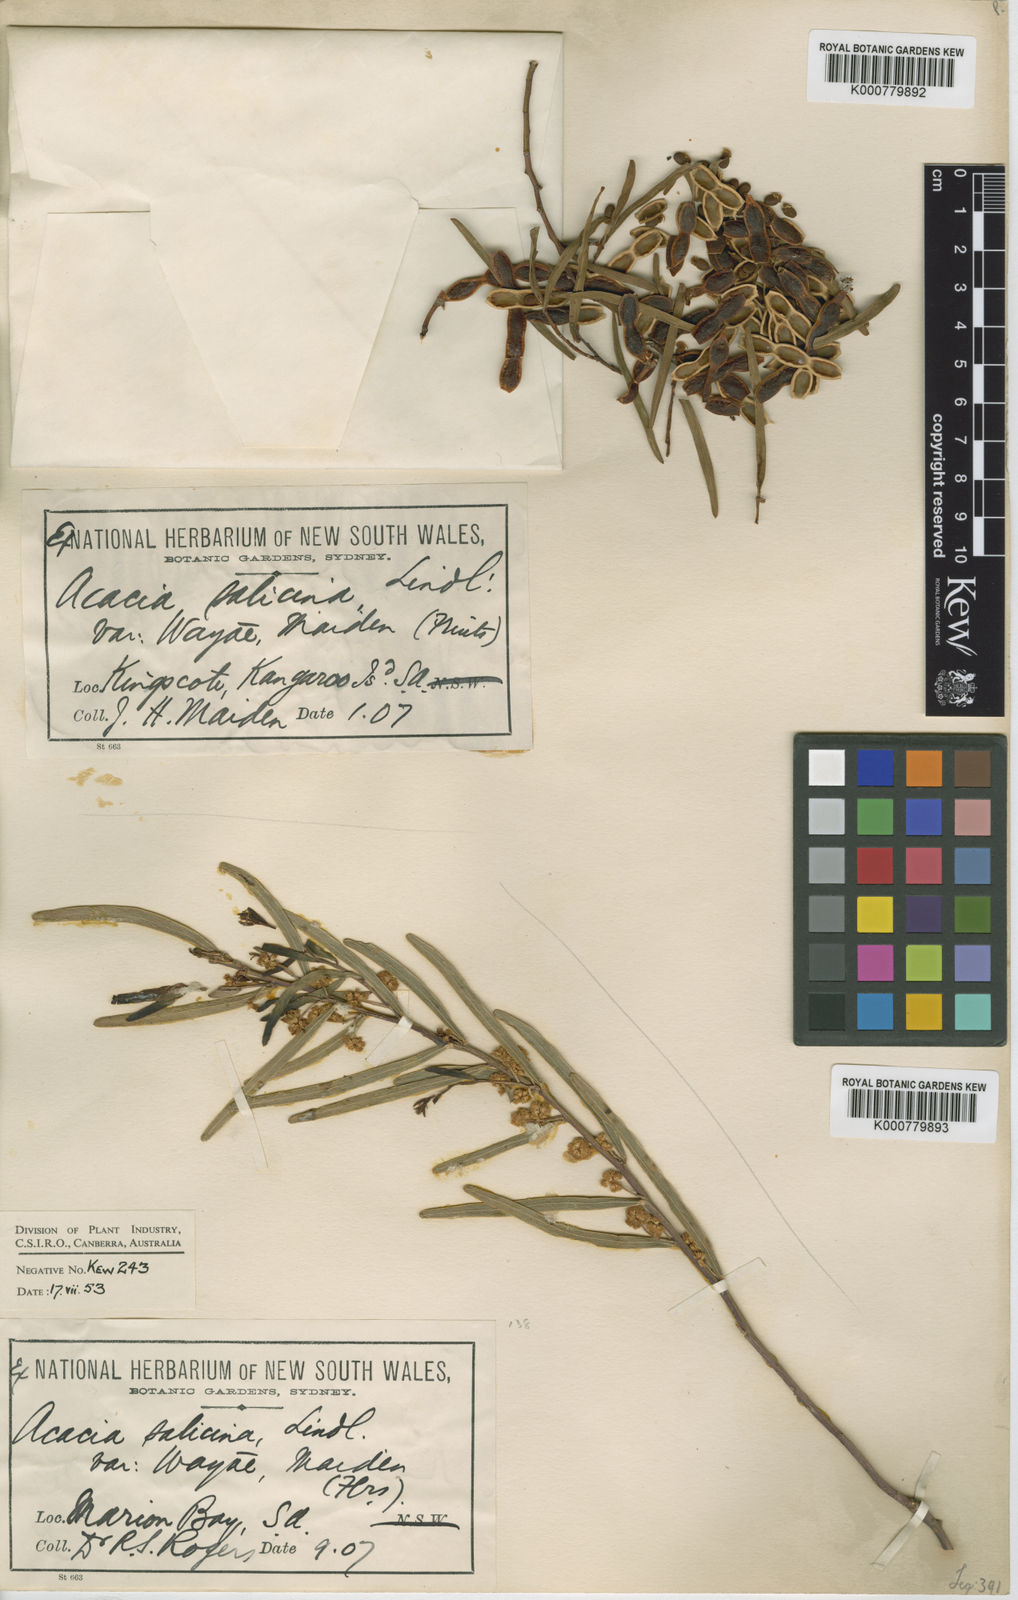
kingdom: Plantae
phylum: Tracheophyta
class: Magnoliopsida
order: Fabales
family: Fabaceae
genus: Acacia
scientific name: Acacia ligulata
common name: Dune wattle
